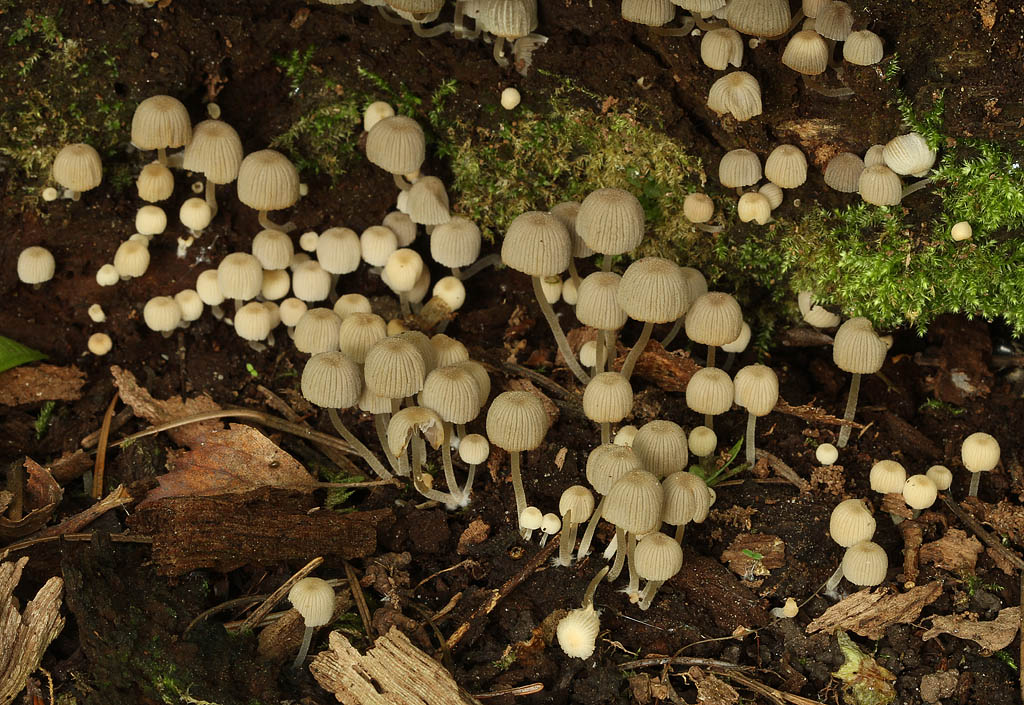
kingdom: Fungi
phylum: Basidiomycota
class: Agaricomycetes
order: Agaricales
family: Psathyrellaceae
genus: Coprinellus
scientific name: Coprinellus disseminatus
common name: bredsået blækhat
